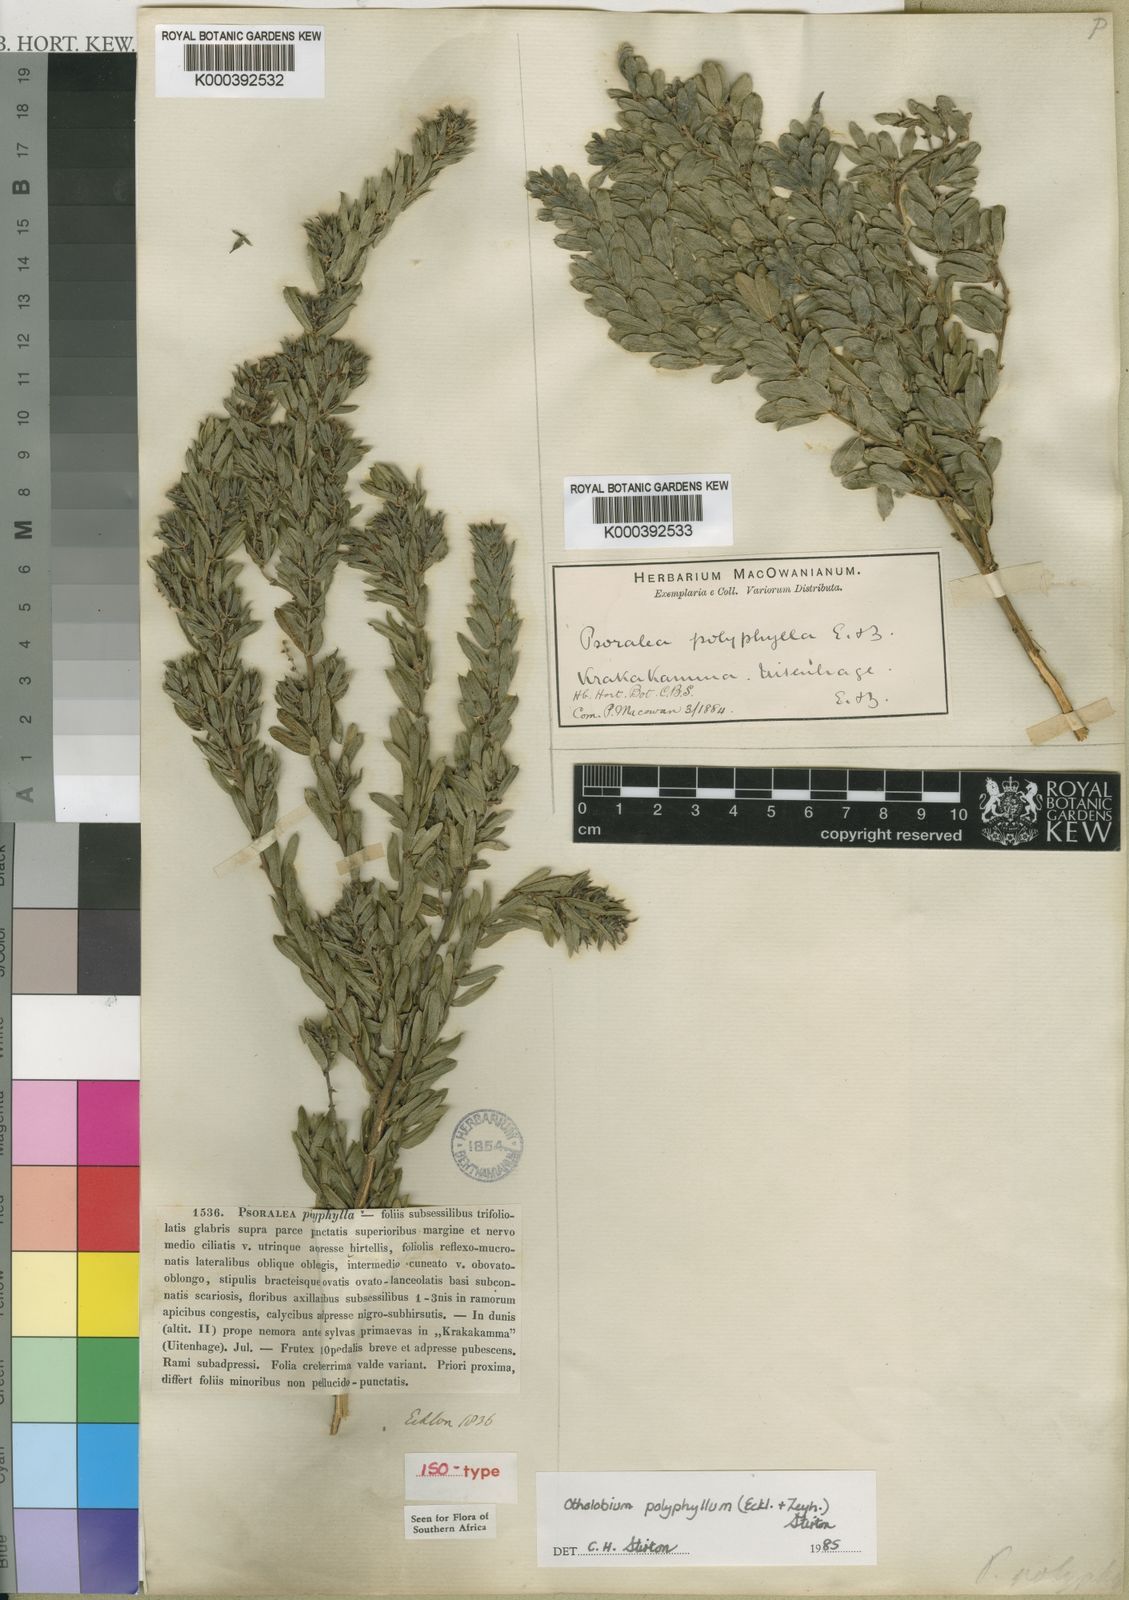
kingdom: Plantae
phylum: Tracheophyta
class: Magnoliopsida
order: Fabales
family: Fabaceae
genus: Psoralea
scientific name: Psoralea polyphylla
